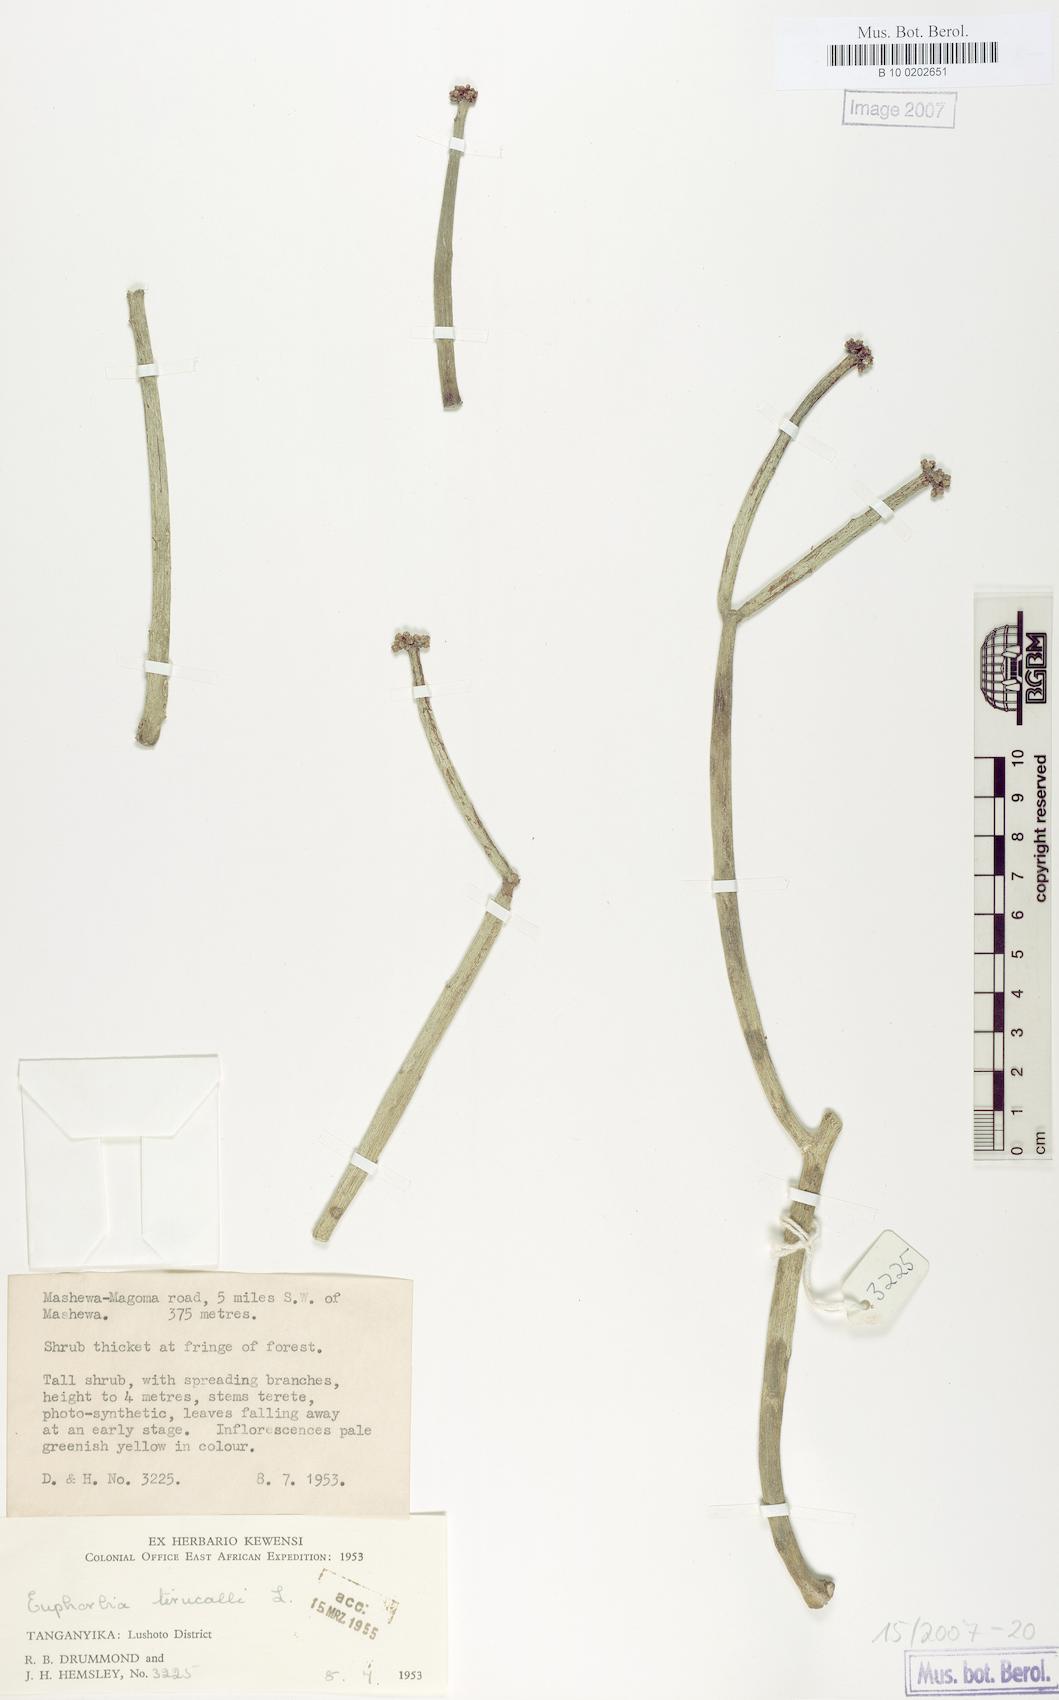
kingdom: Plantae
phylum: Tracheophyta
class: Magnoliopsida
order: Malpighiales
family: Euphorbiaceae
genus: Euphorbia
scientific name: Euphorbia tirucalli
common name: Indiantree spurge
